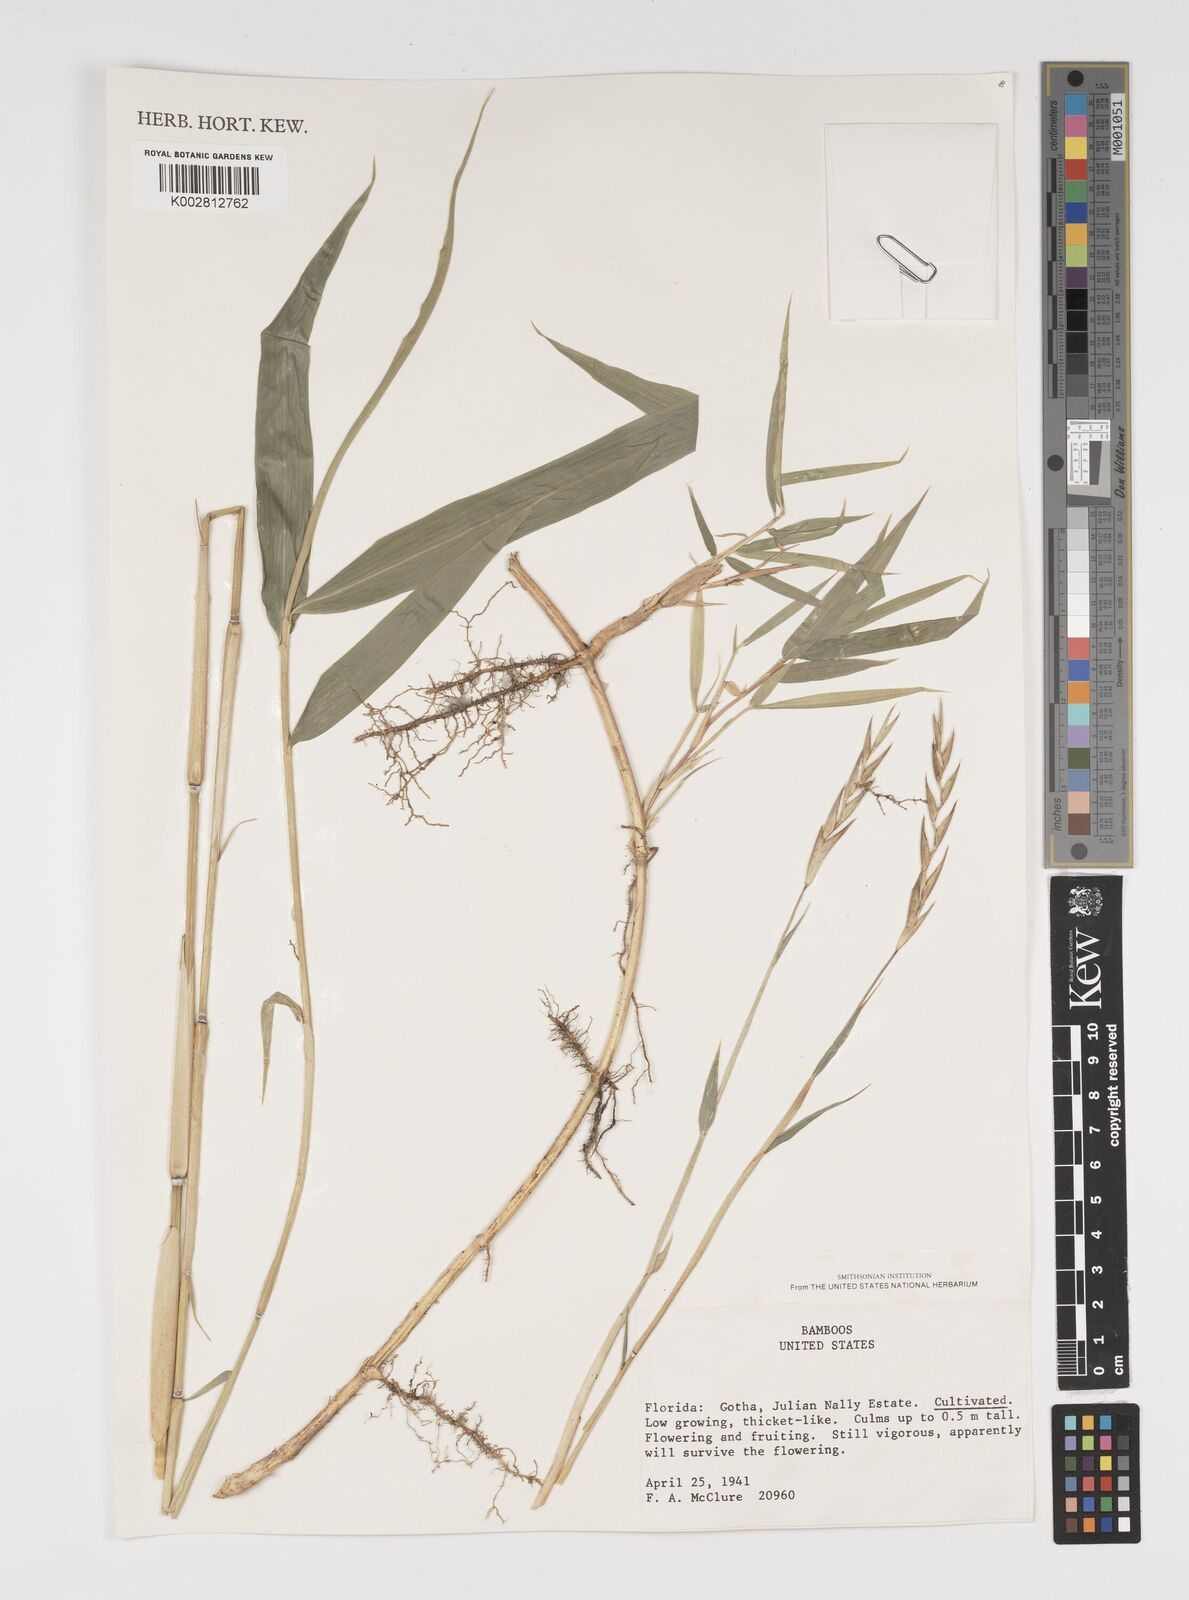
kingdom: Plantae
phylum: Tracheophyta
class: Liliopsida
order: Poales
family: Poaceae
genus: Arundinaria
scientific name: Arundinaria
